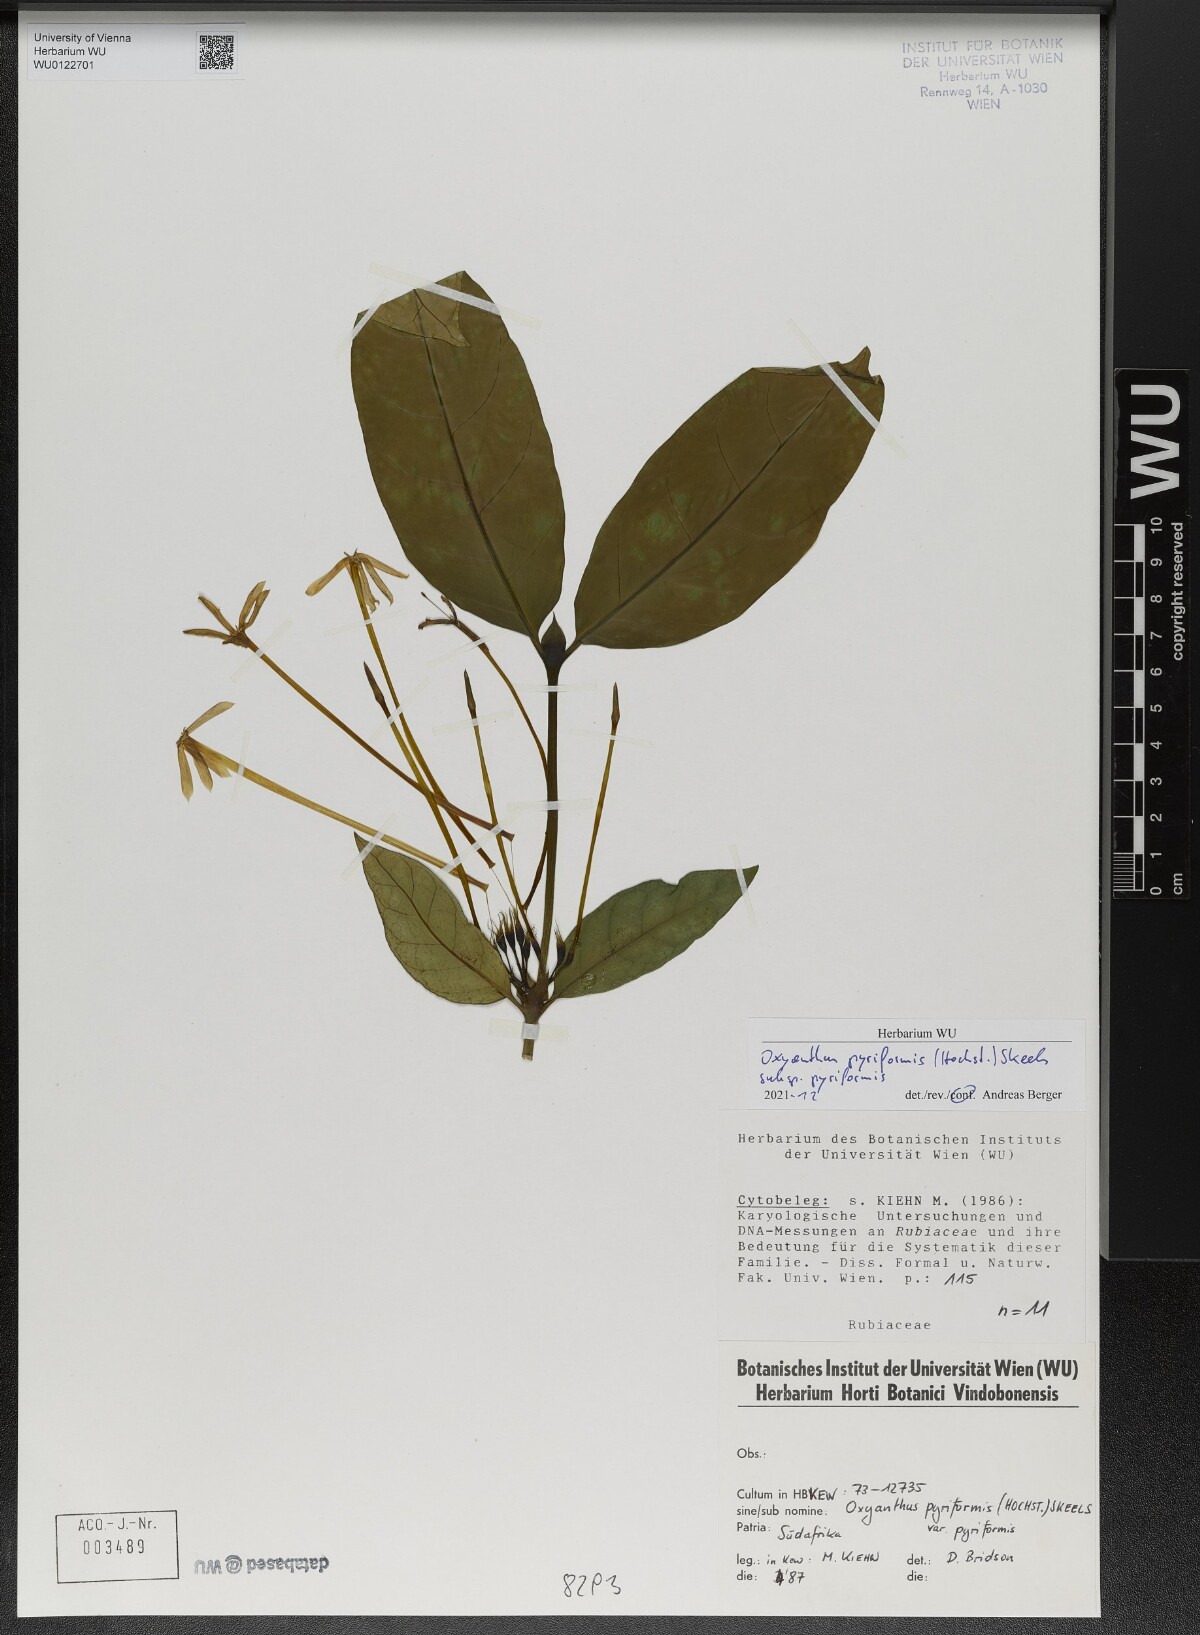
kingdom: Plantae
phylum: Tracheophyta
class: Magnoliopsida
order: Gentianales
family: Rubiaceae
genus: Oxyanthus
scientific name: Oxyanthus pyriformis
